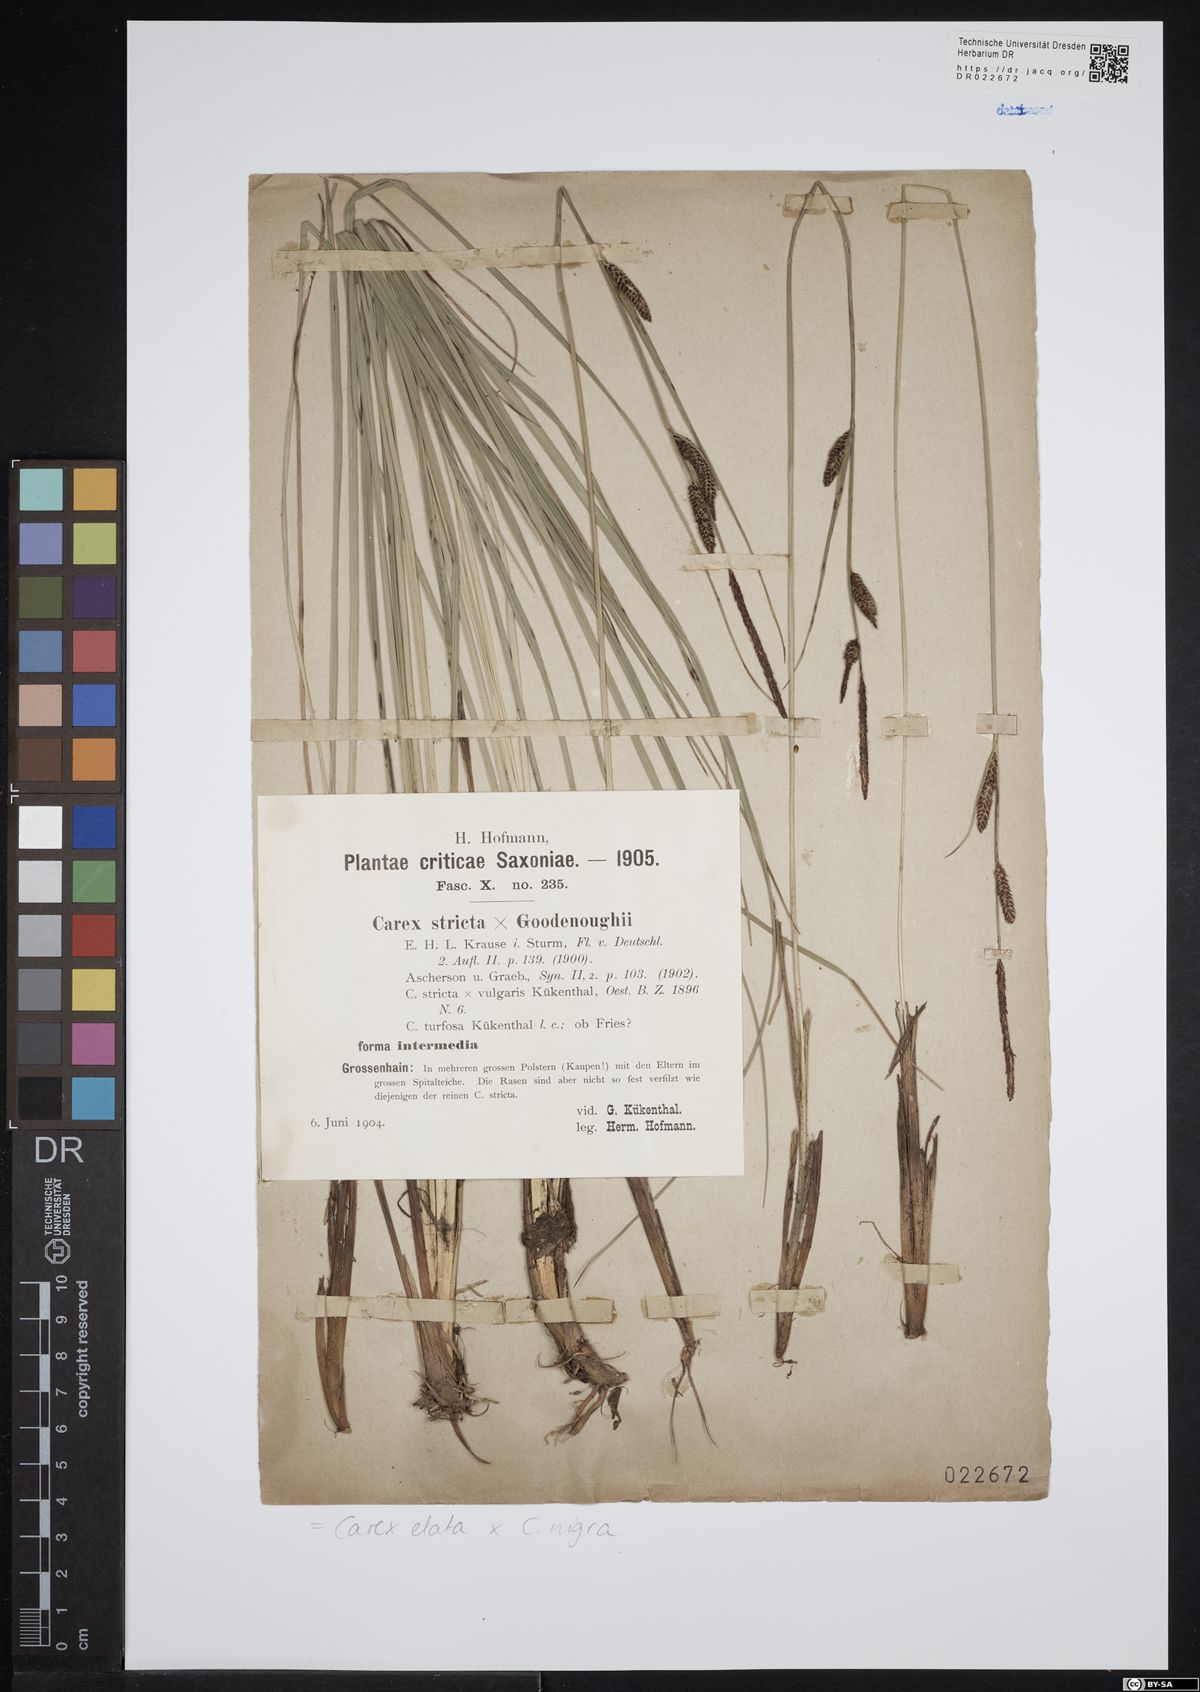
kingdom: Plantae
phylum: Tracheophyta
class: Liliopsida
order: Poales
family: Cyperaceae
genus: Carex
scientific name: Carex turfosa
